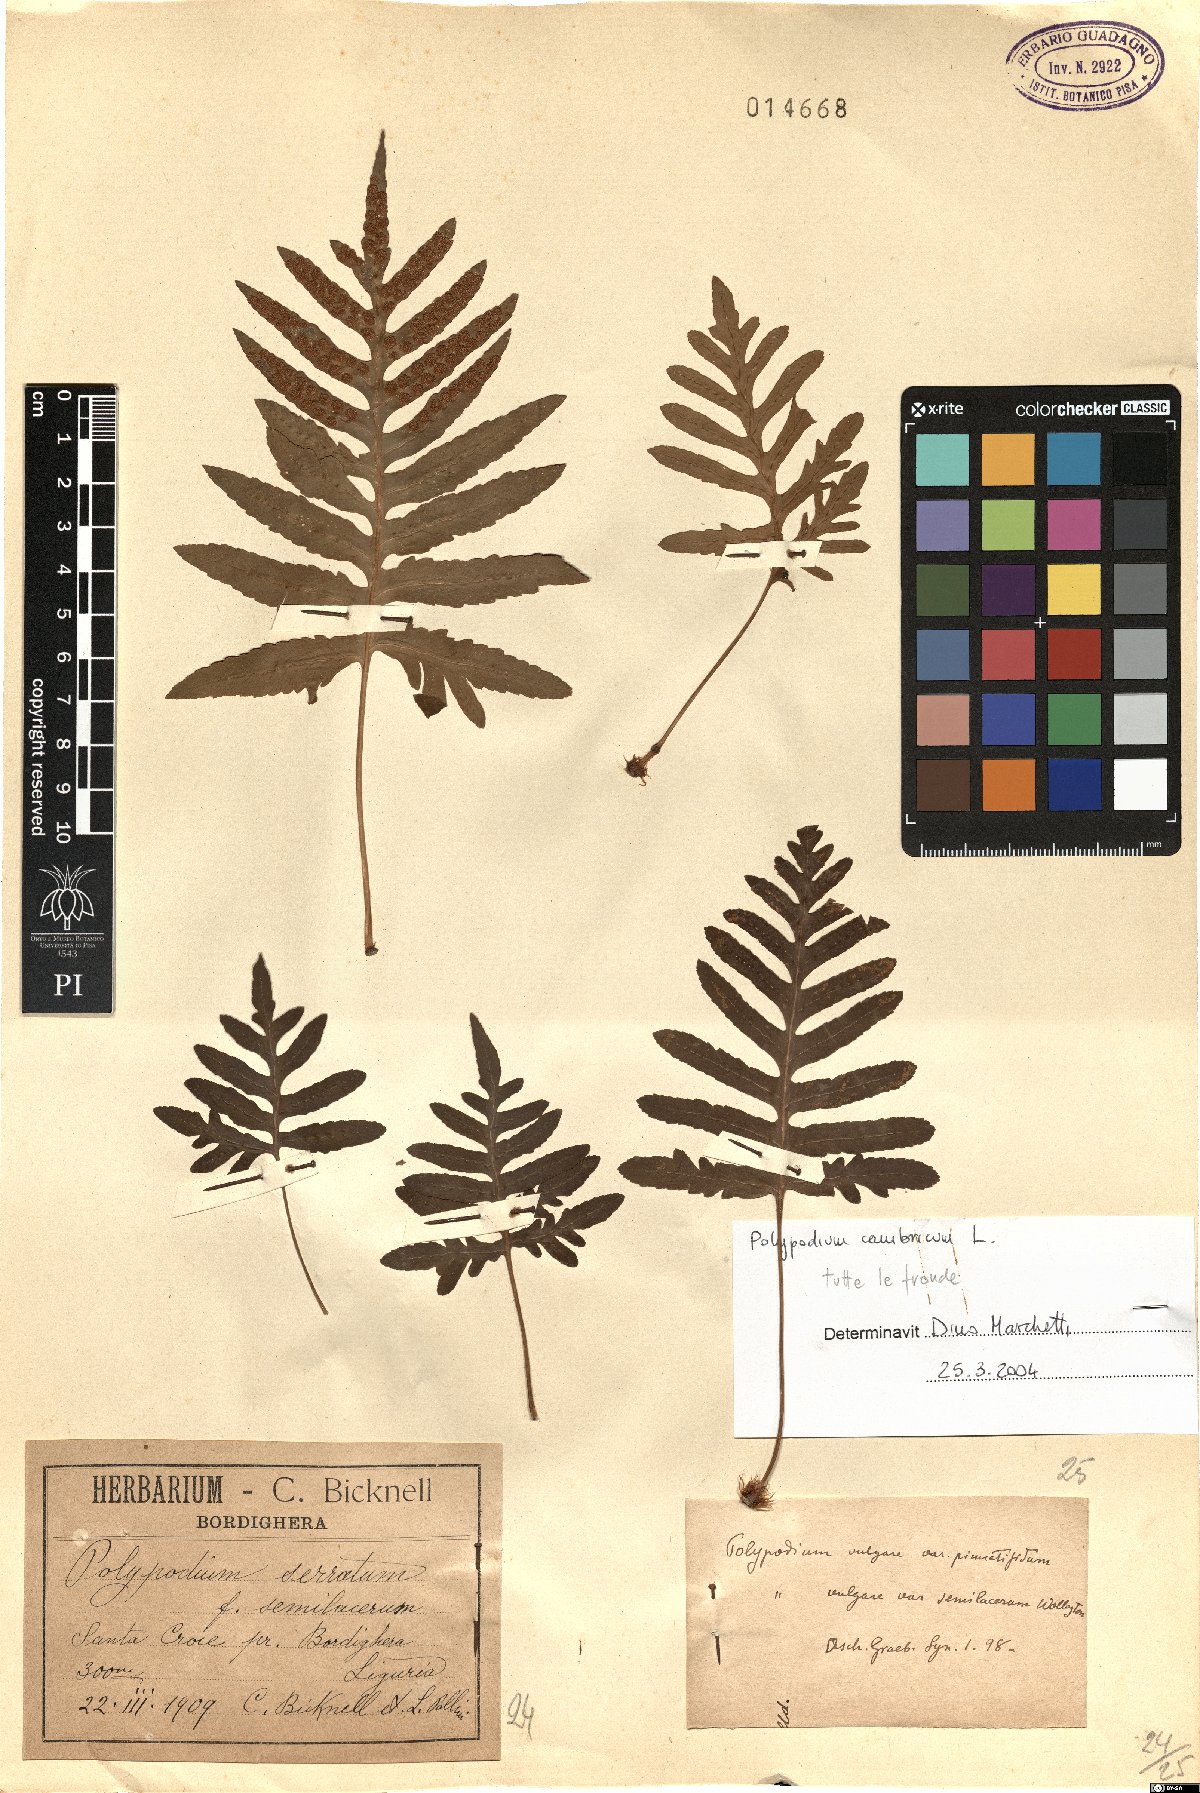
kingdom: Plantae
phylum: Tracheophyta
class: Polypodiopsida
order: Polypodiales
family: Polypodiaceae
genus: Polypodium
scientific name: Polypodium cambricum
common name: Southern polypody
